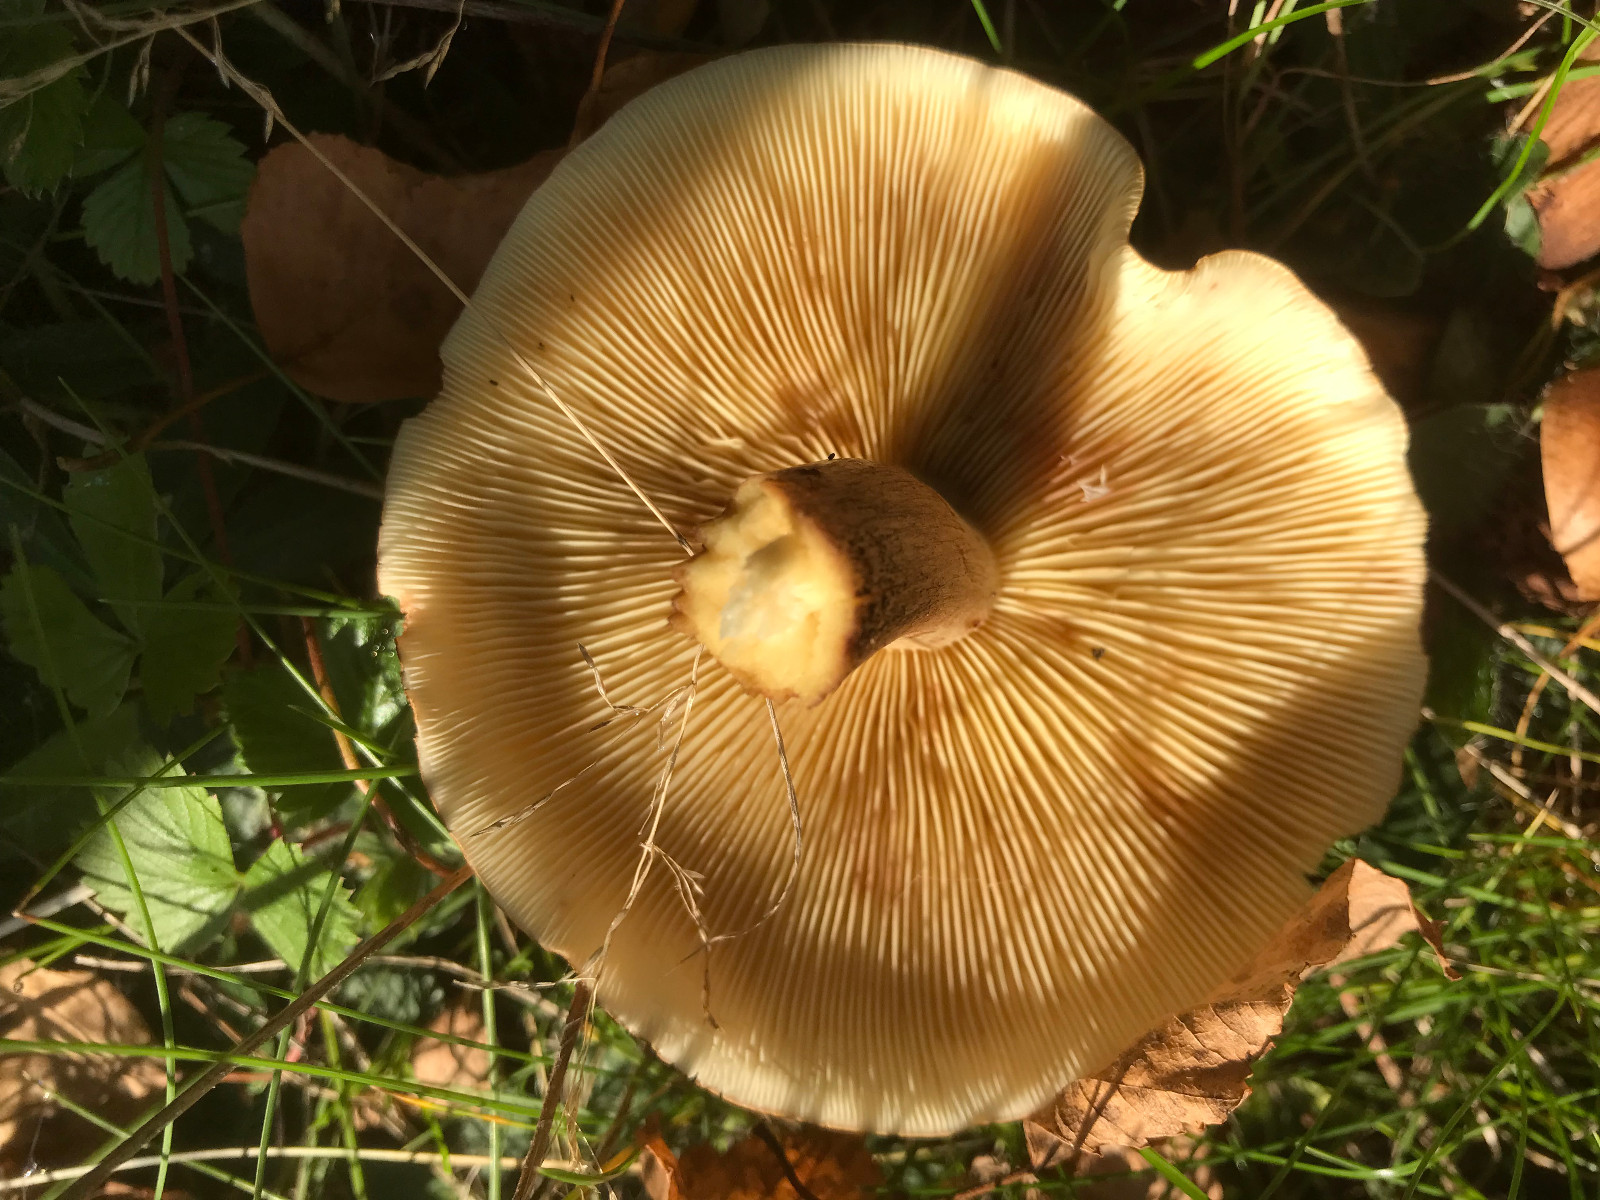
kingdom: Fungi
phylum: Basidiomycota
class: Agaricomycetes
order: Agaricales
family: Tricholomataceae
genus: Tricholoma
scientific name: Tricholoma fulvum
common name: birke-ridderhat
